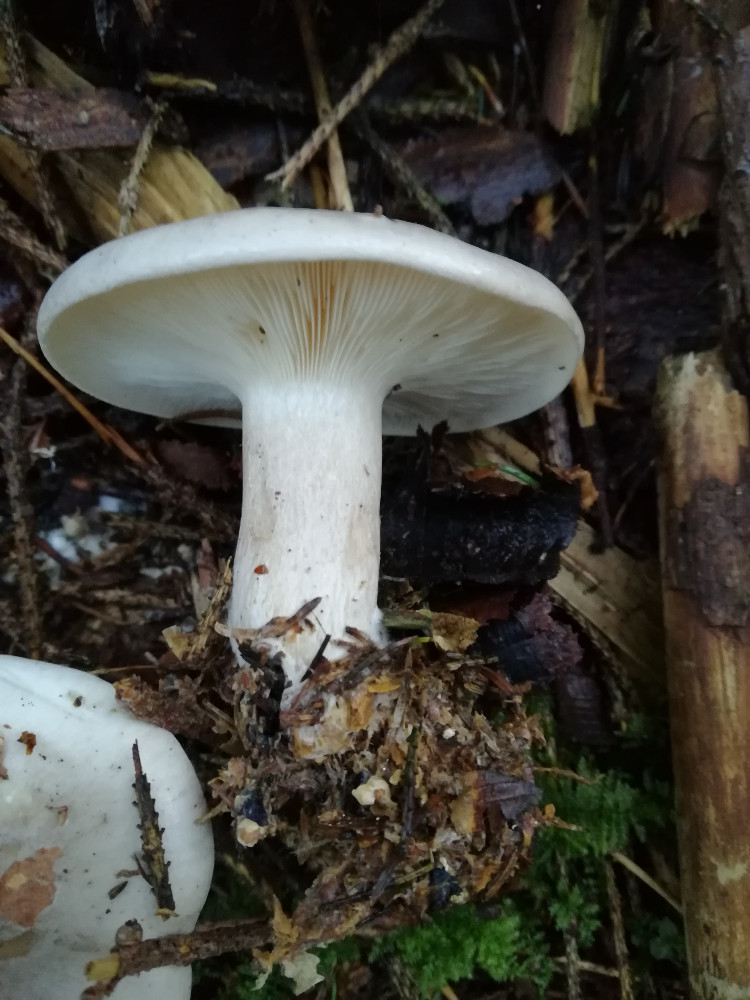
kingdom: Fungi
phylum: Basidiomycota
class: Agaricomycetes
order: Agaricales
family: Tricholomataceae
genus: Clitocybe
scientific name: Clitocybe nebularis
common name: tåge-tragthat
